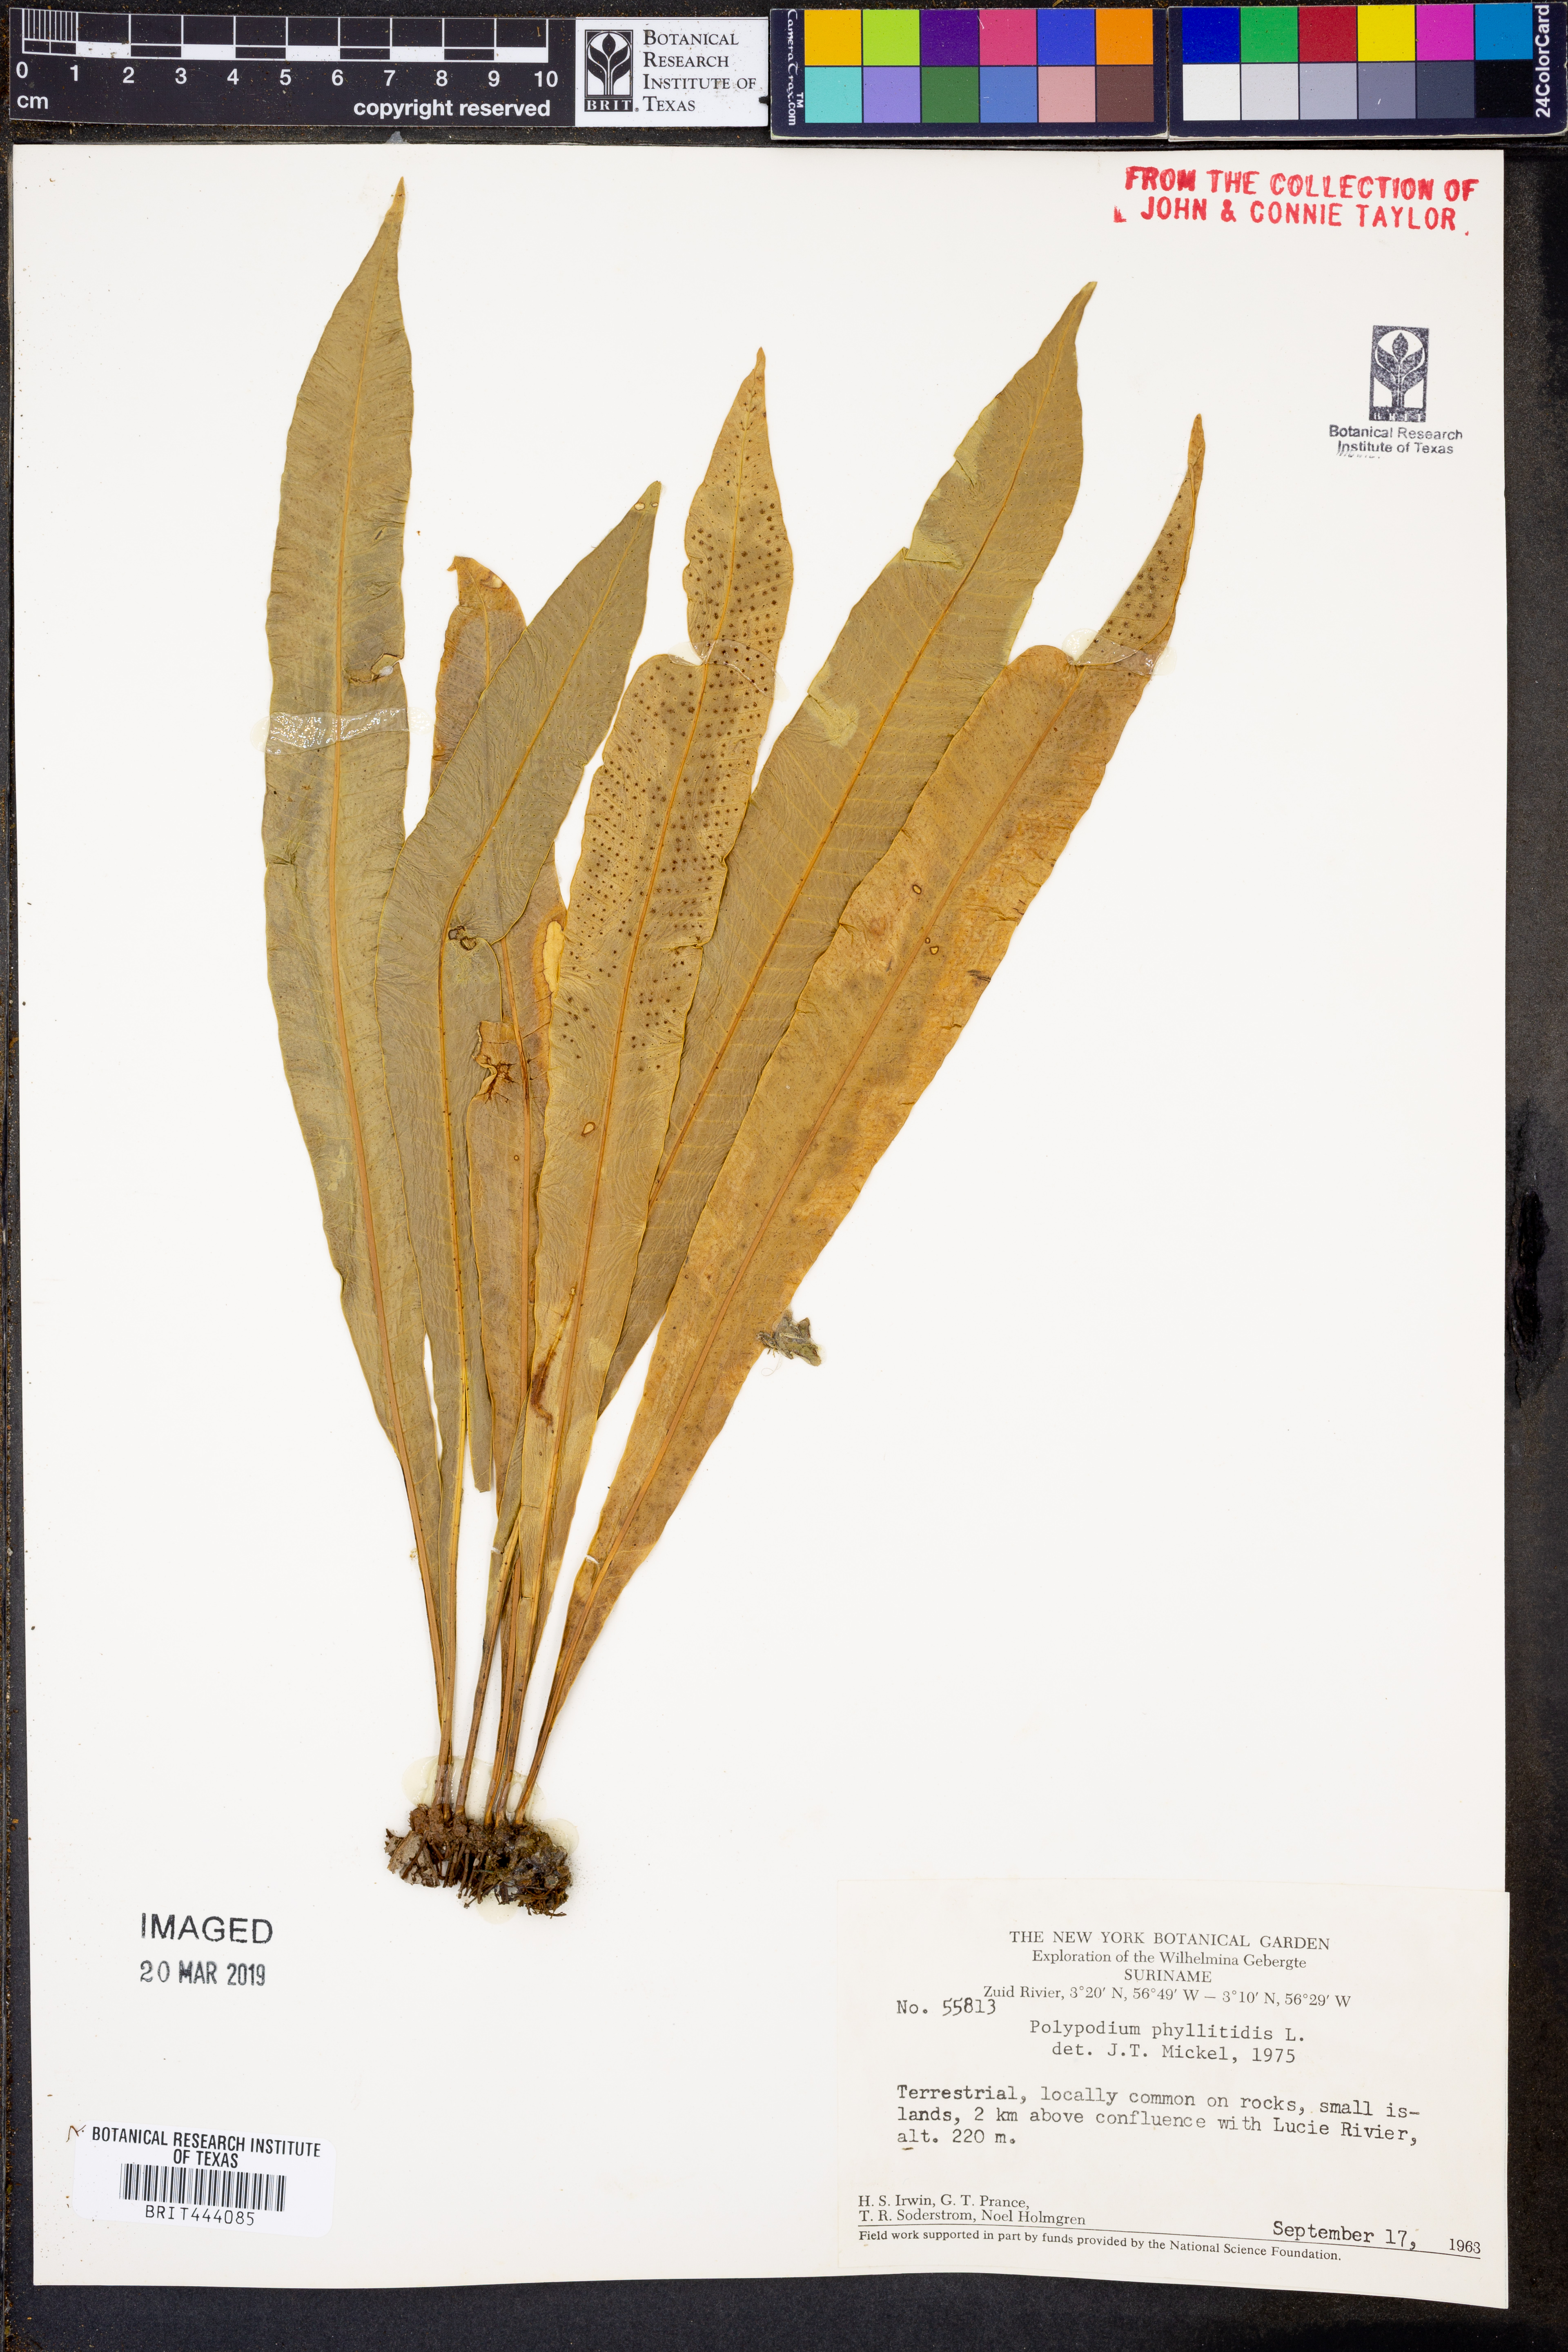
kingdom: Plantae
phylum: Tracheophyta
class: Polypodiopsida
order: Polypodiales
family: Polypodiaceae
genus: Campyloneurum
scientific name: Campyloneurum phyllitidis
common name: Cow-tongue fern
